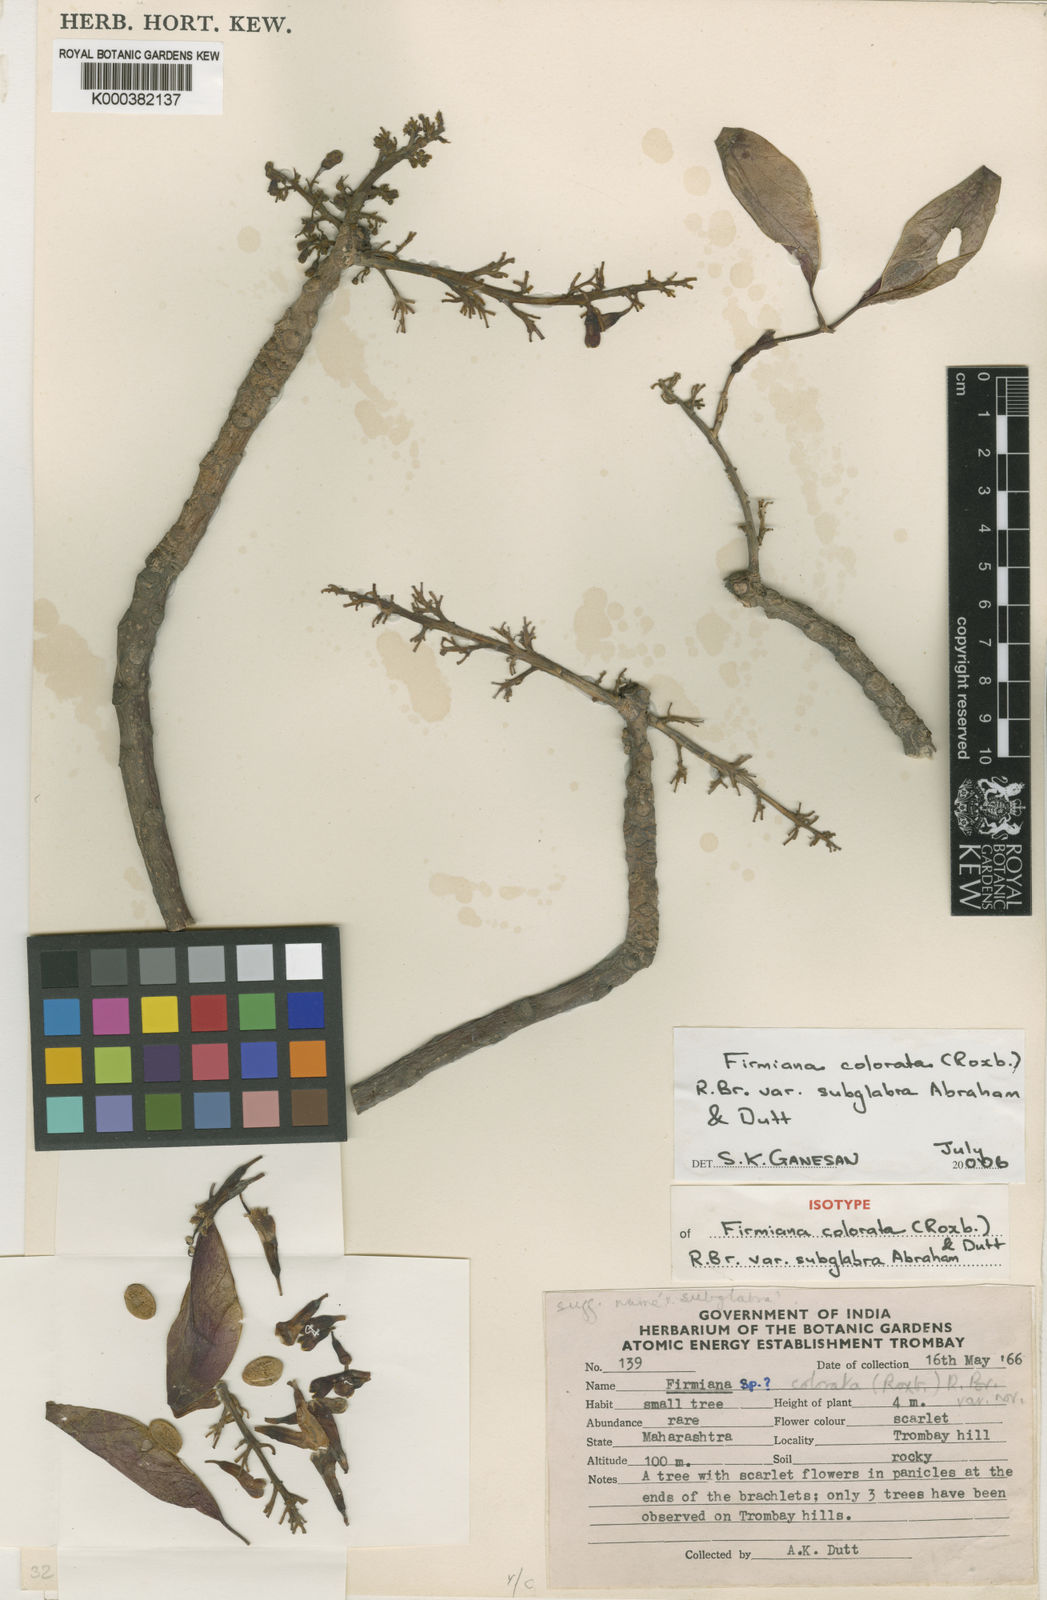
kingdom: Plantae
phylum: Tracheophyta
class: Magnoliopsida
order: Malvales
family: Malvaceae
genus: Firmiana
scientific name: Firmiana colorata
